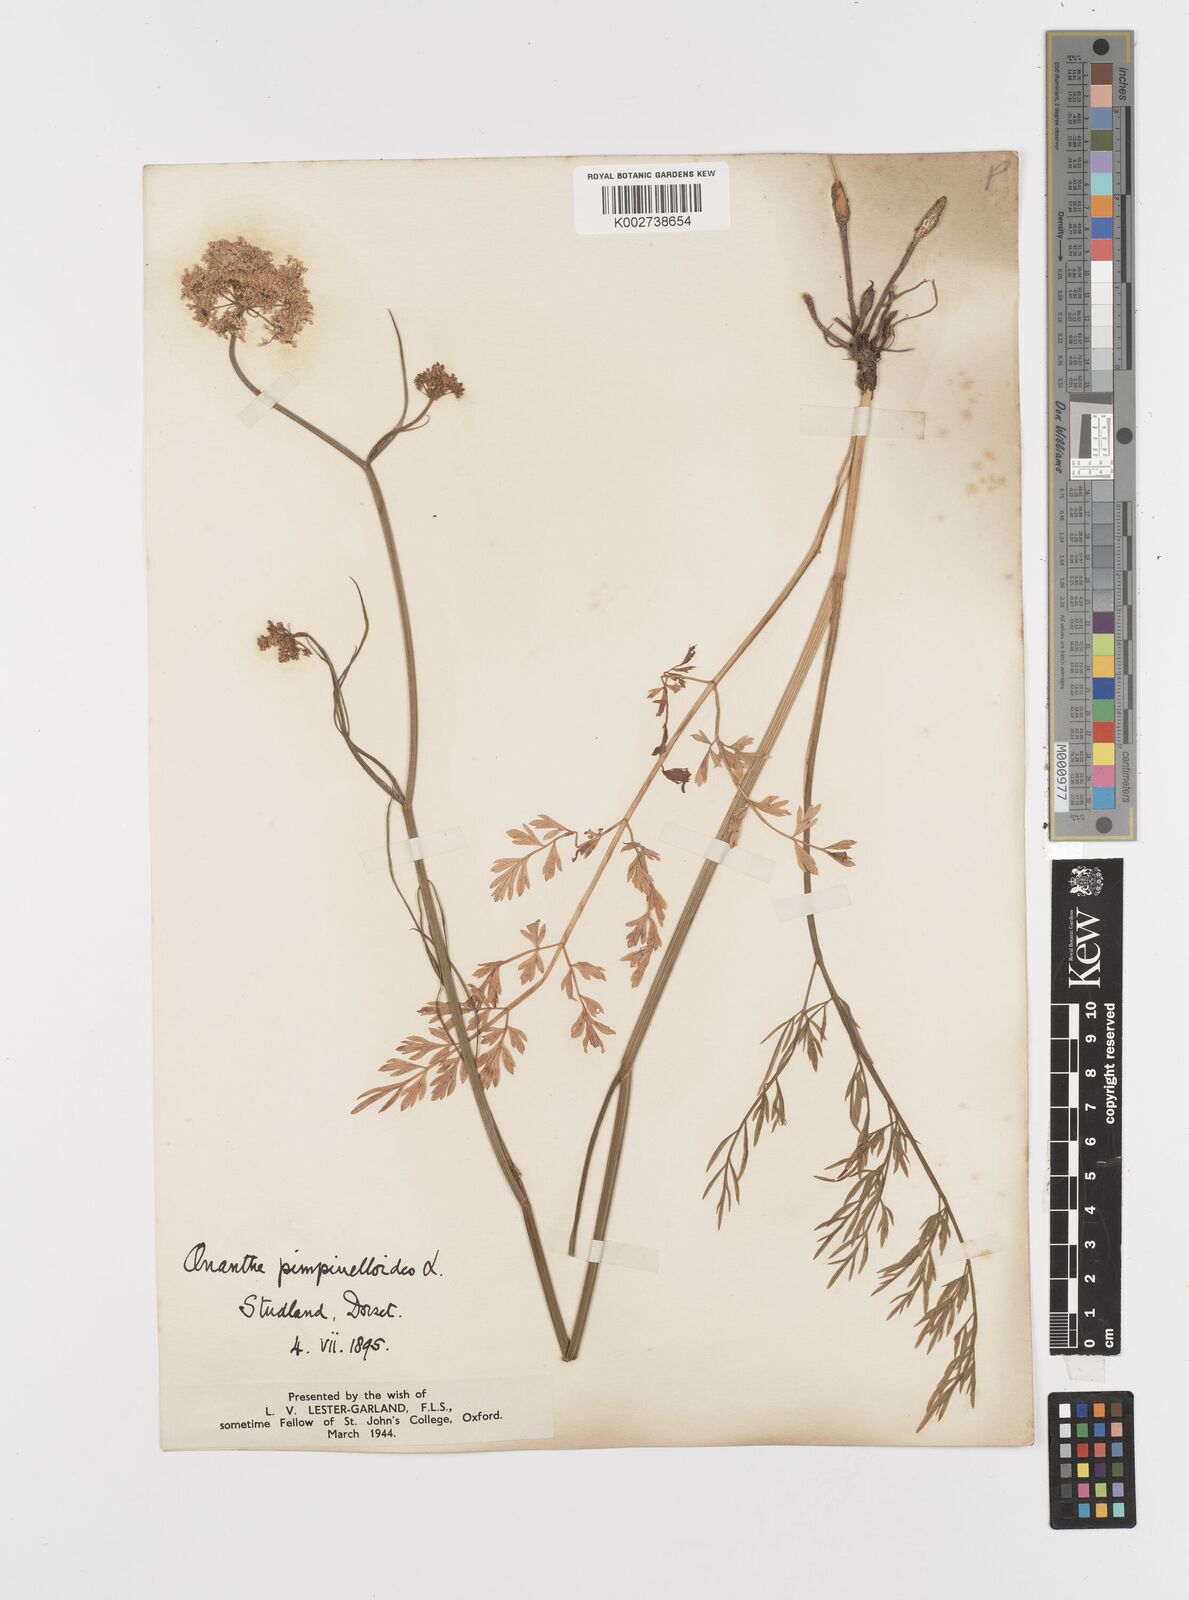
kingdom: Plantae
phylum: Tracheophyta
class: Magnoliopsida
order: Apiales
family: Apiaceae
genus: Oenanthe
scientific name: Oenanthe pimpinelloides
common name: Corky-fruited water-dropwort
